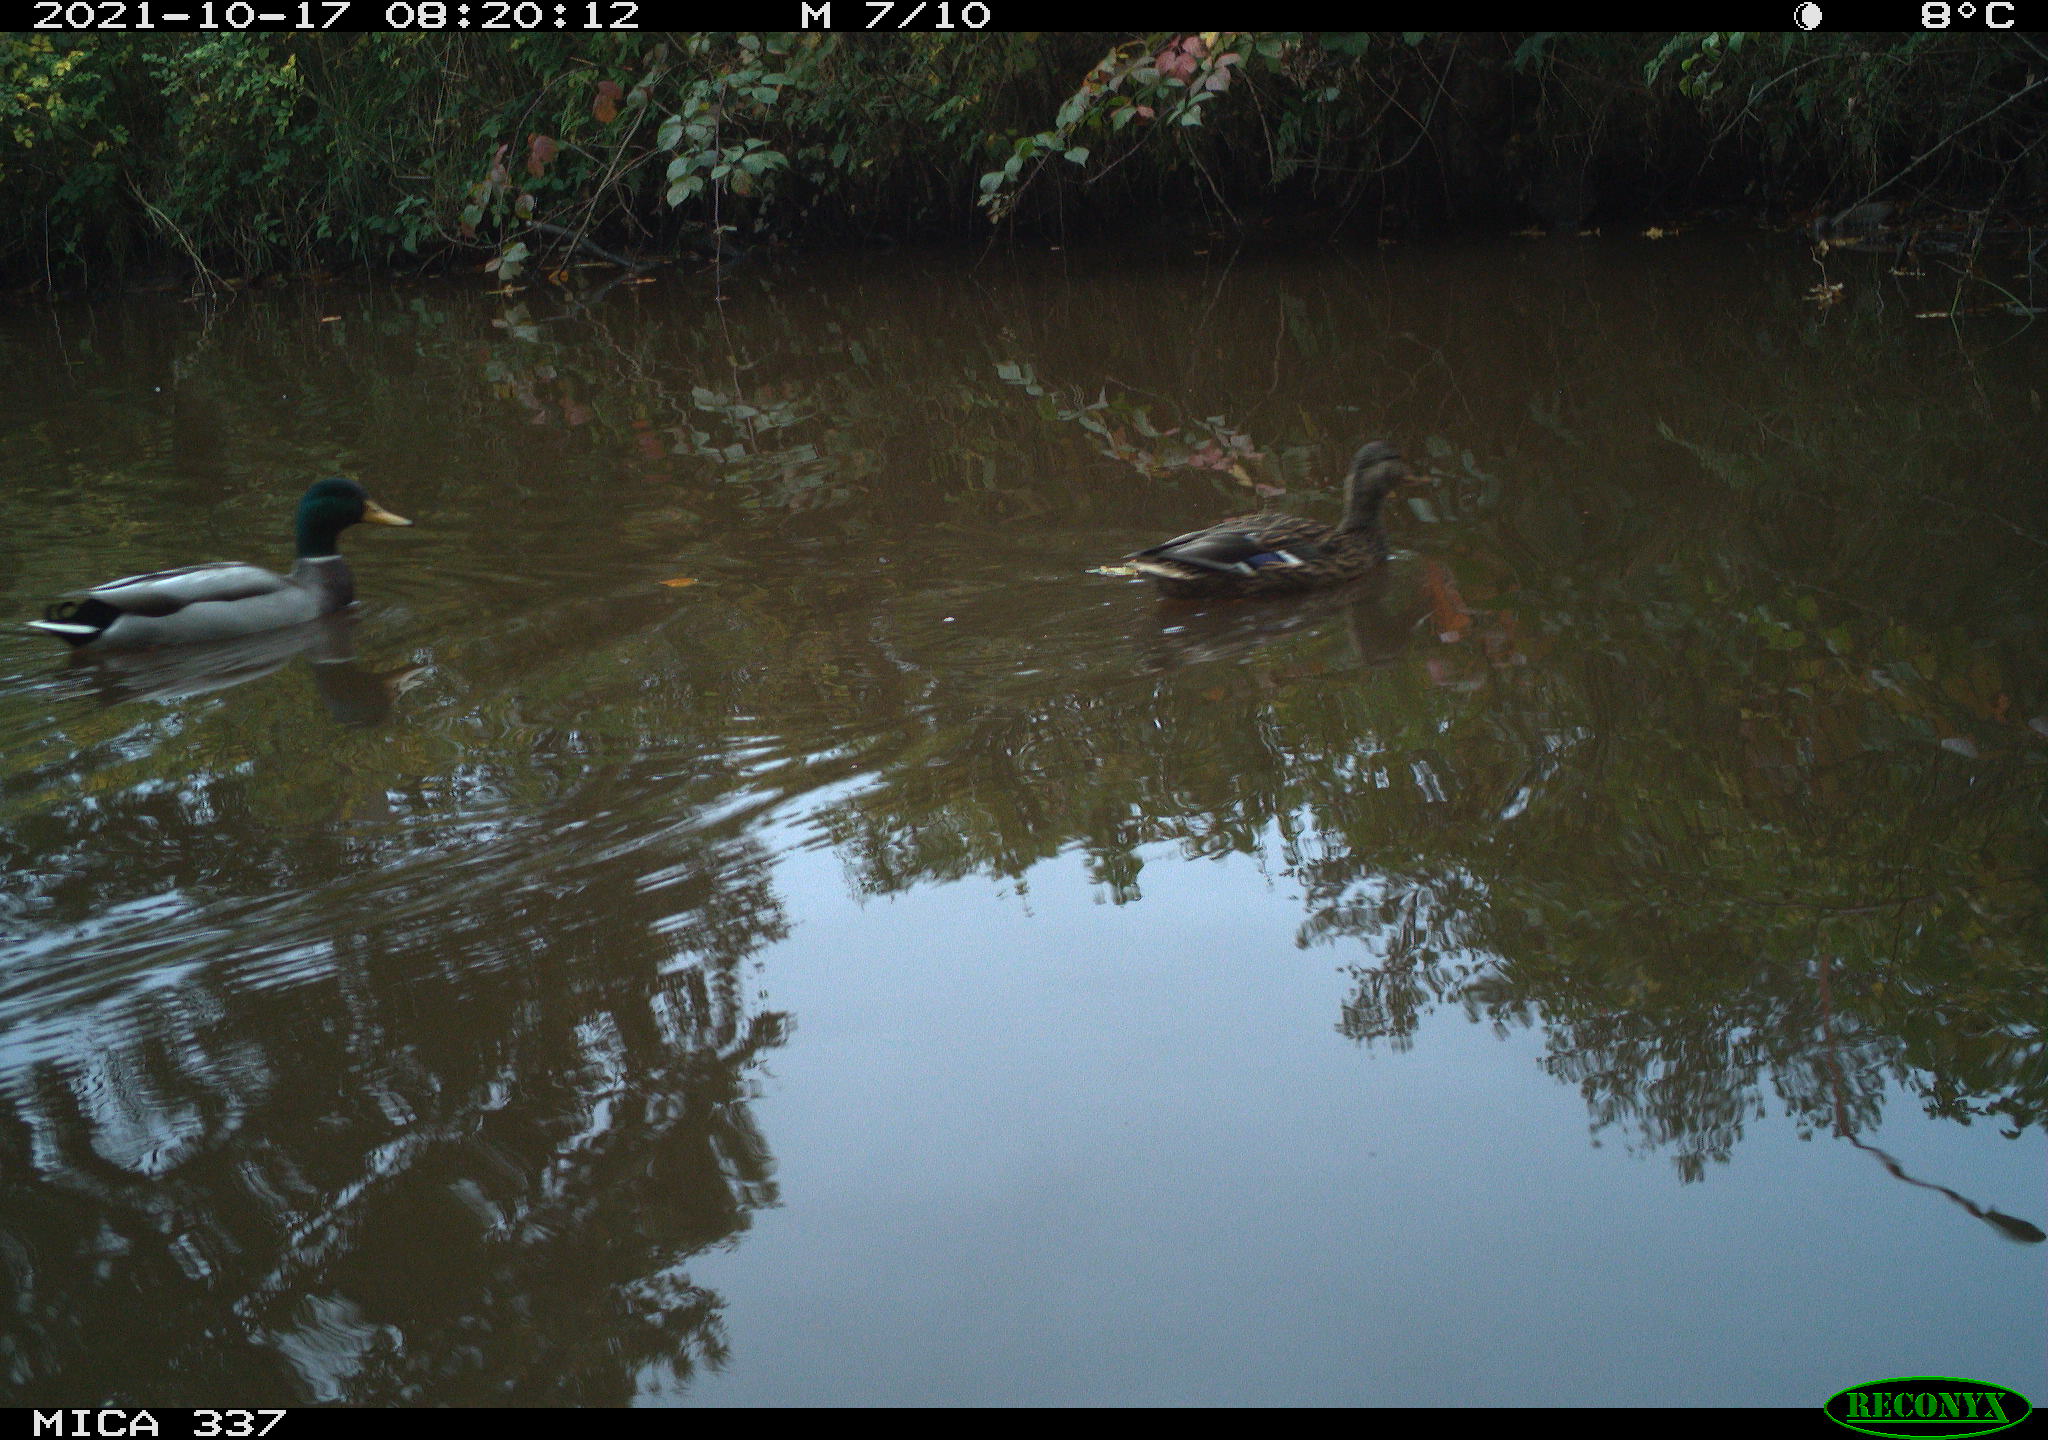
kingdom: Animalia
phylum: Chordata
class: Aves
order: Anseriformes
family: Anatidae
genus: Anas
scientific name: Anas platyrhynchos
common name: Mallard
